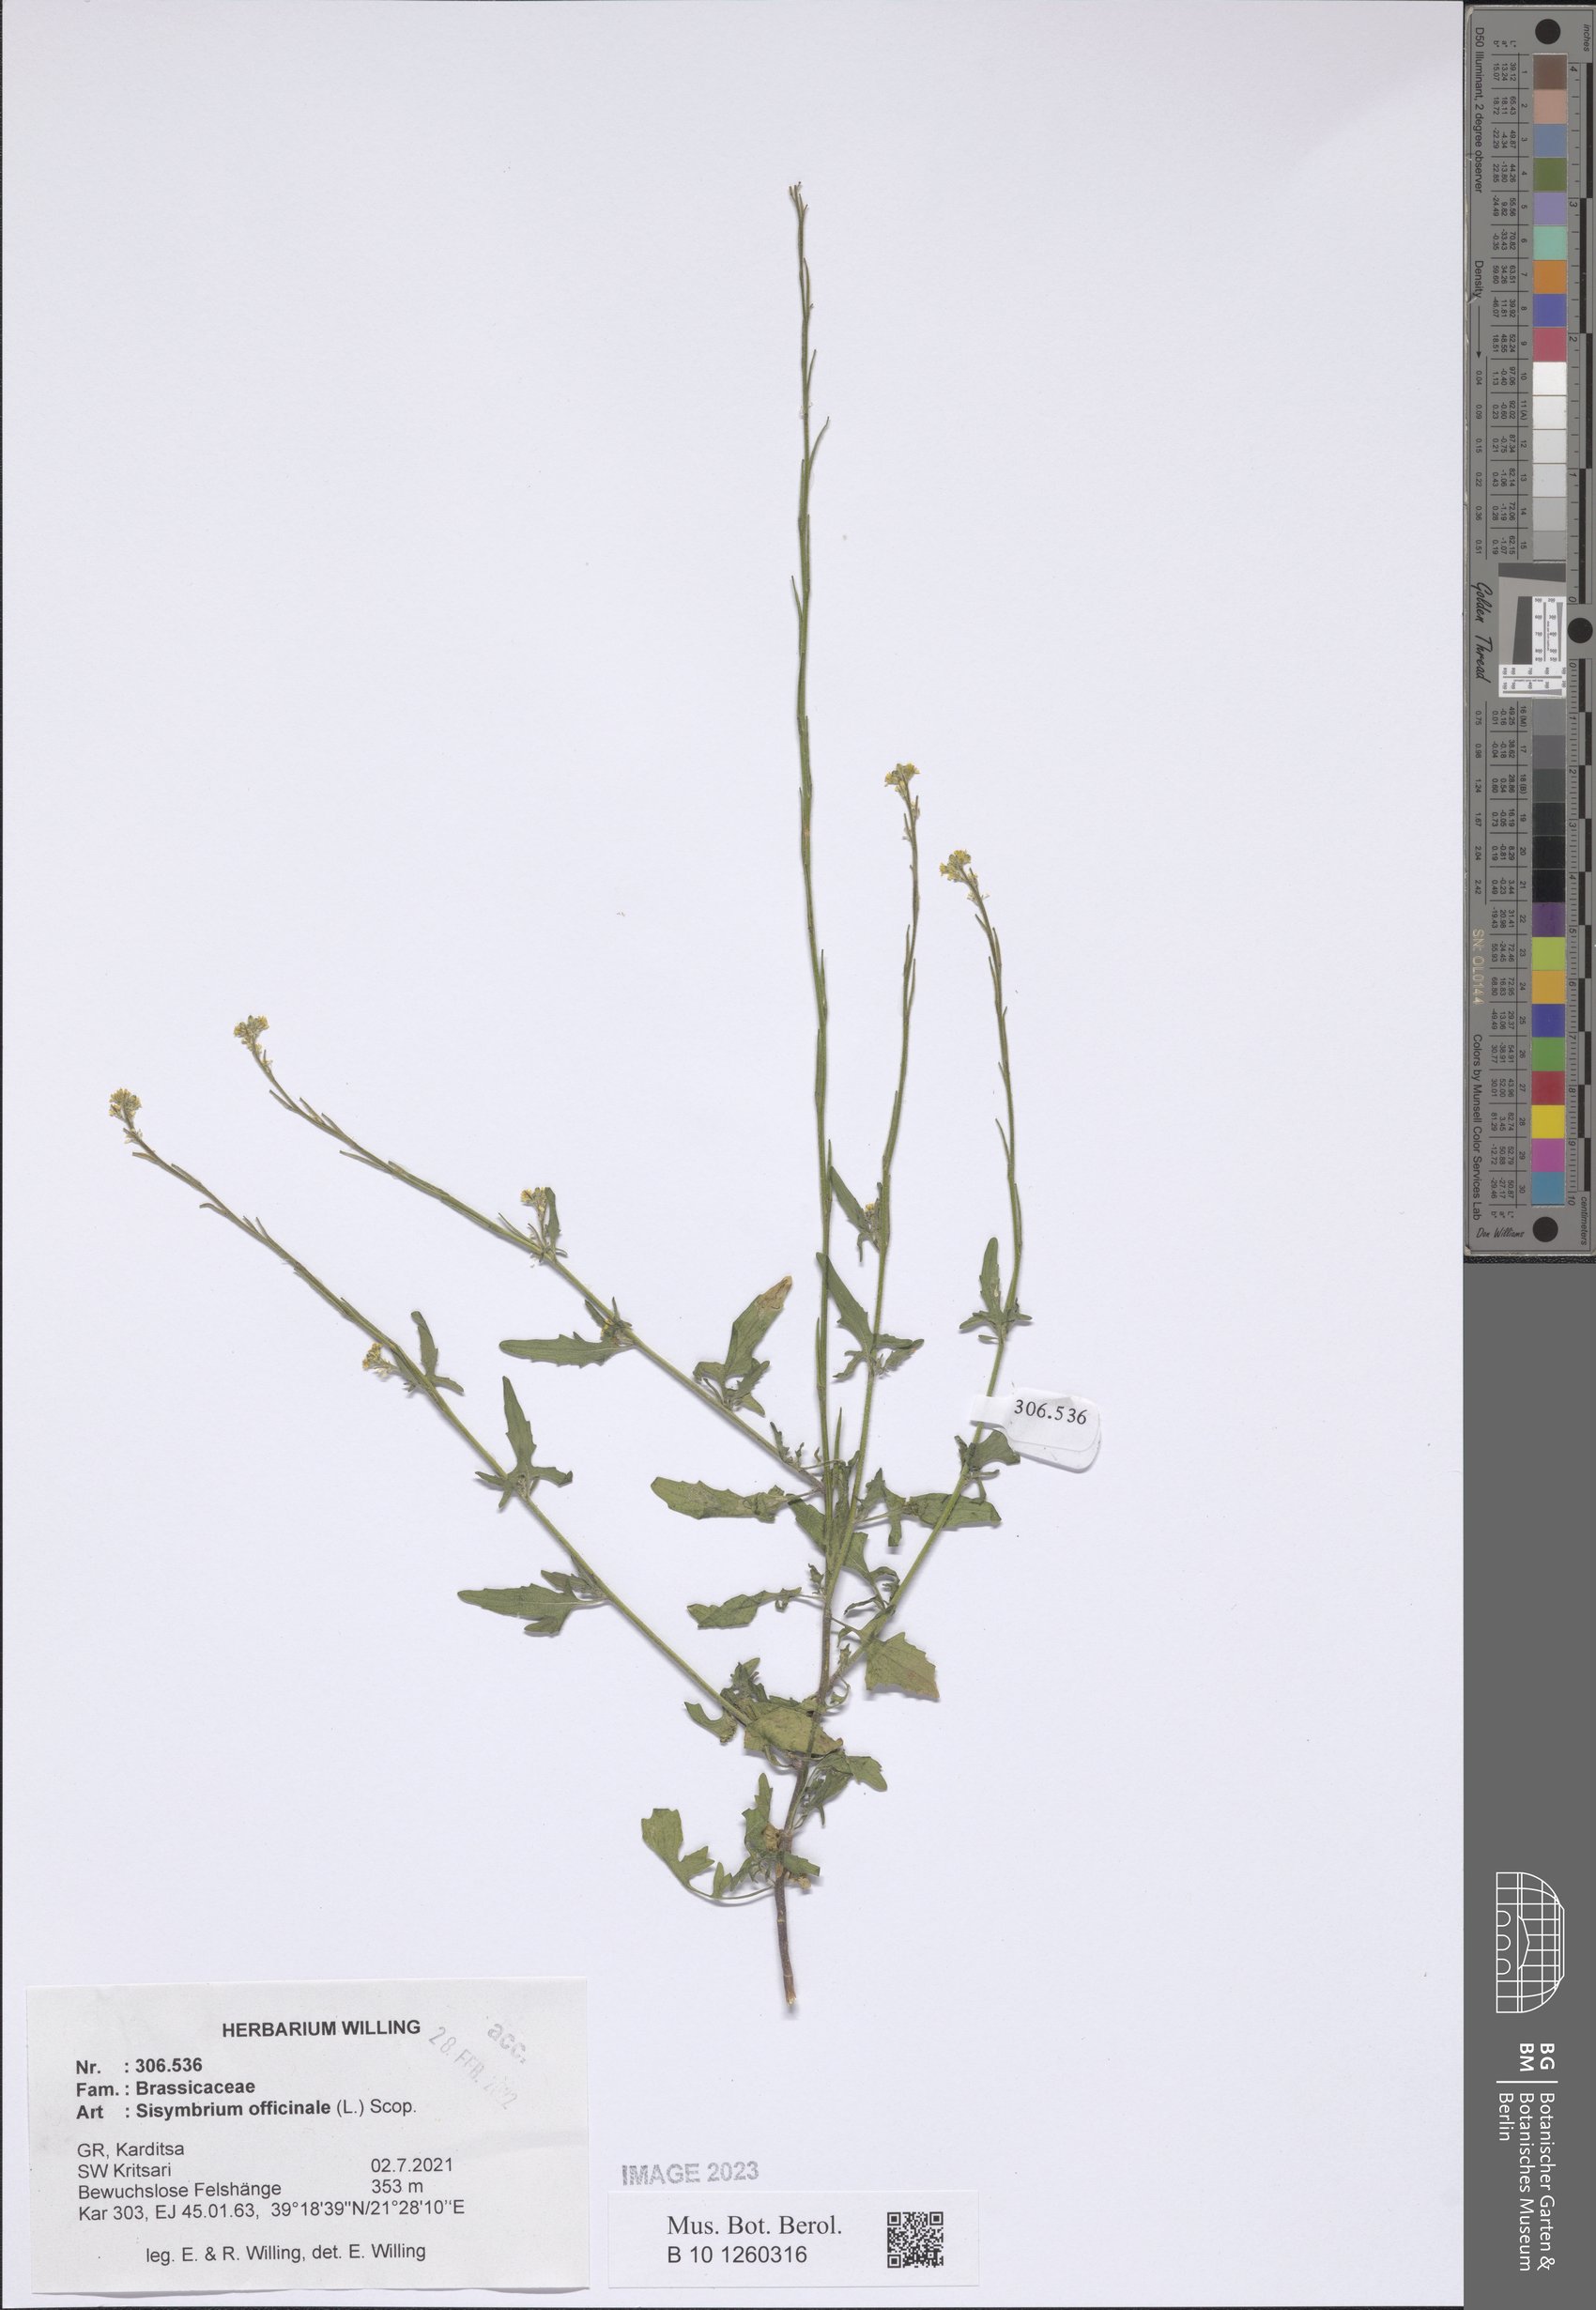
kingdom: Plantae
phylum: Tracheophyta
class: Magnoliopsida
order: Brassicales
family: Brassicaceae
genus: Sisymbrium
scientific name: Sisymbrium officinale
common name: Hedge mustard
